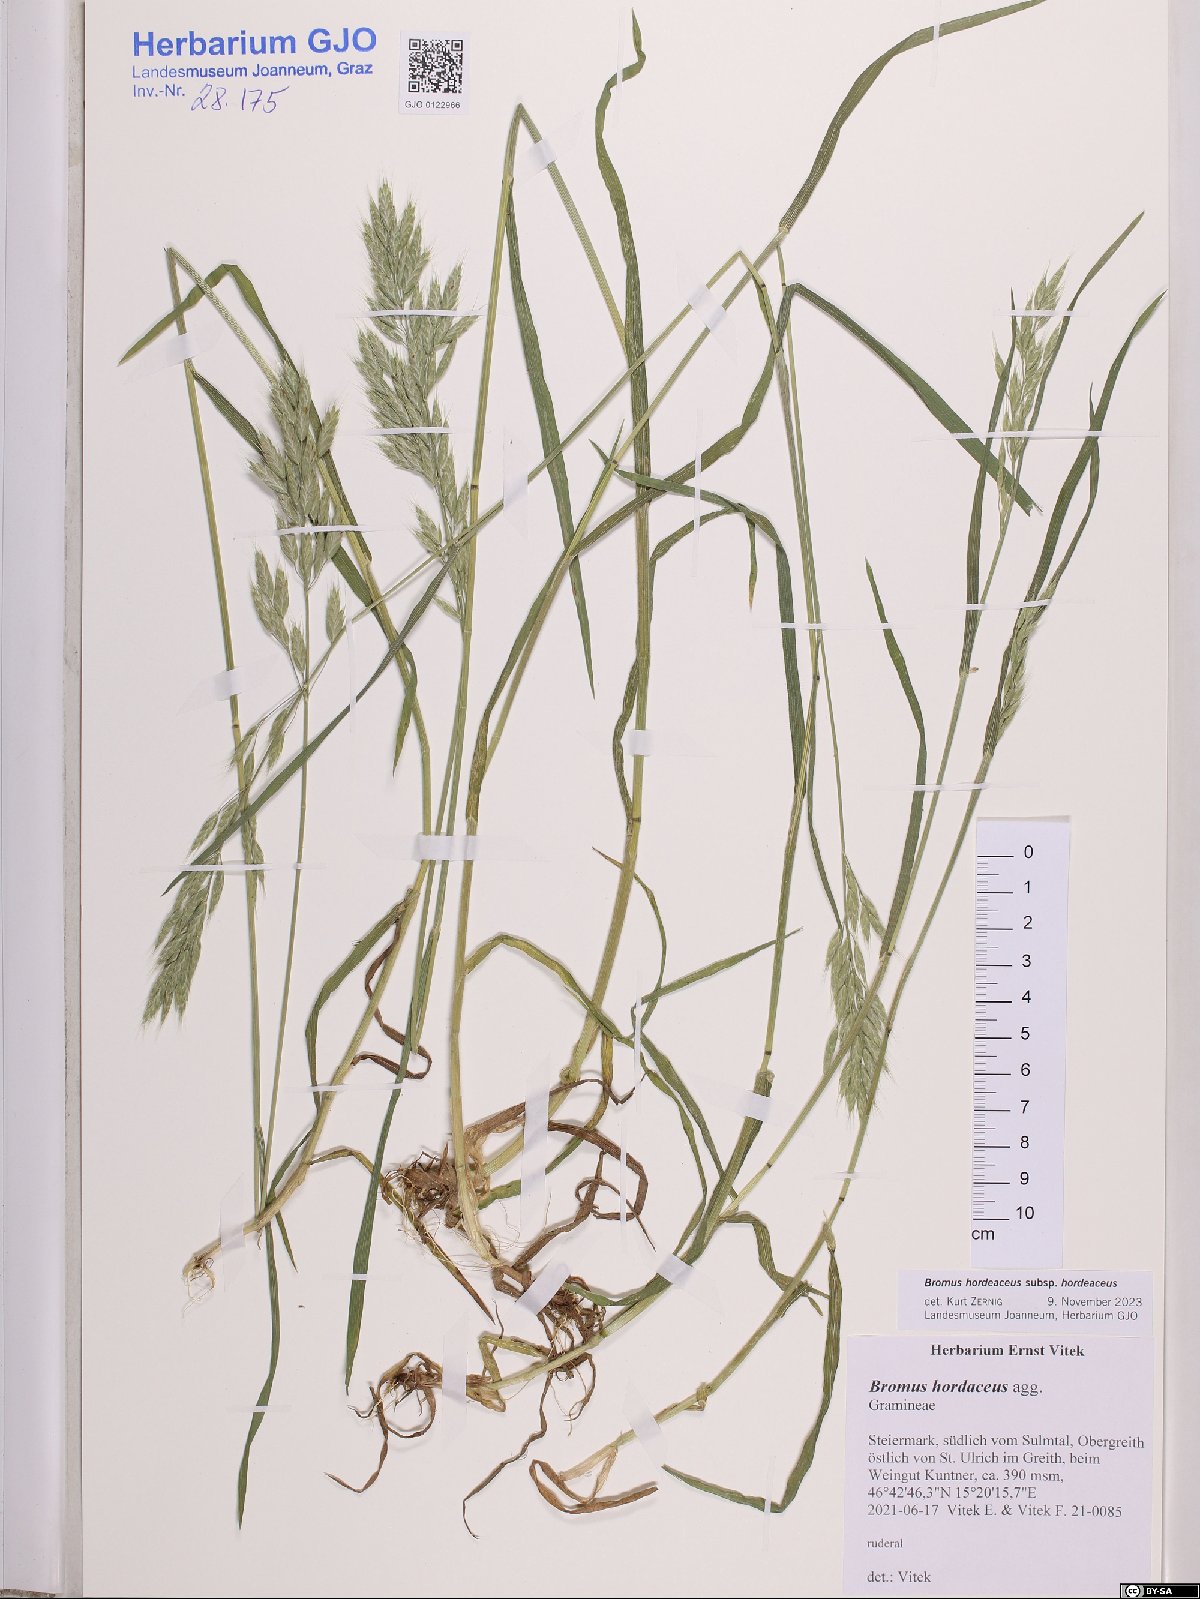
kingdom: Plantae
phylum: Tracheophyta
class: Liliopsida
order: Poales
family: Poaceae
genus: Bromus
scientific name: Bromus hordeaceus
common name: Soft brome
